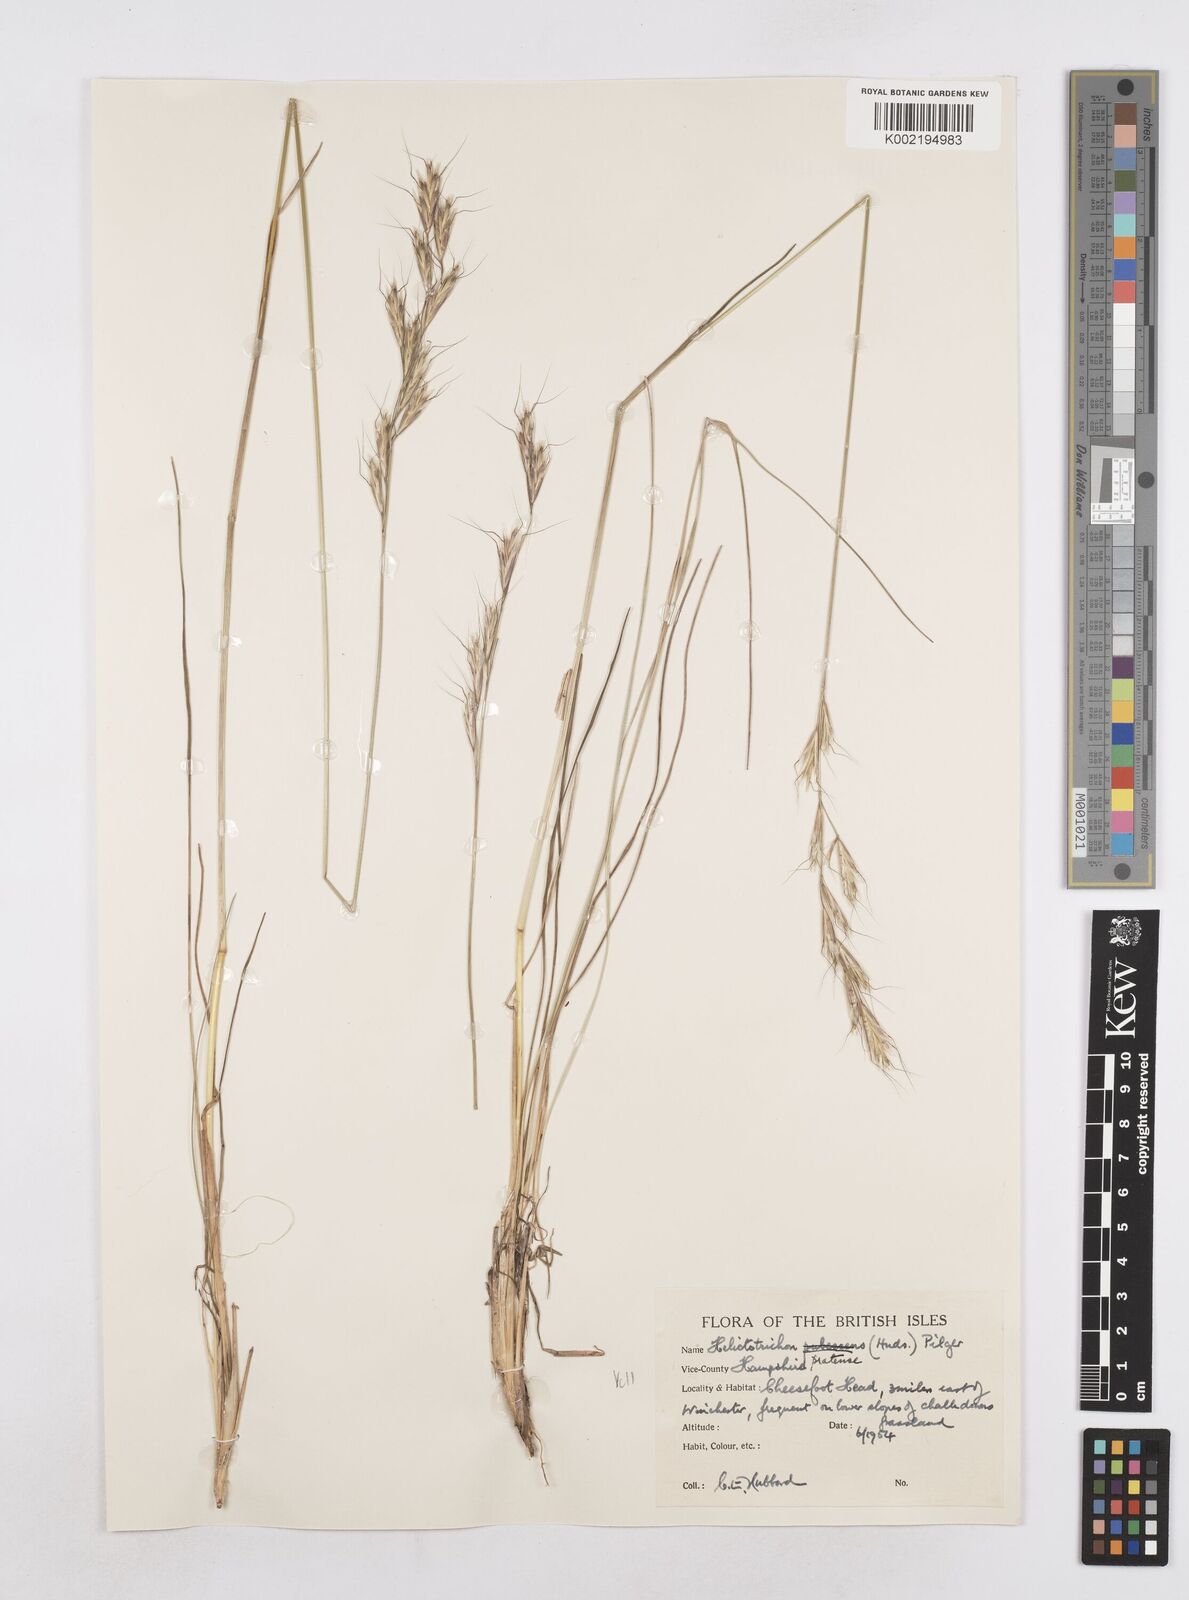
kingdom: Plantae
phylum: Tracheophyta
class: Liliopsida
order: Poales
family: Poaceae
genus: Helictochloa
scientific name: Helictochloa pratensis
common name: Meadow oat grass
